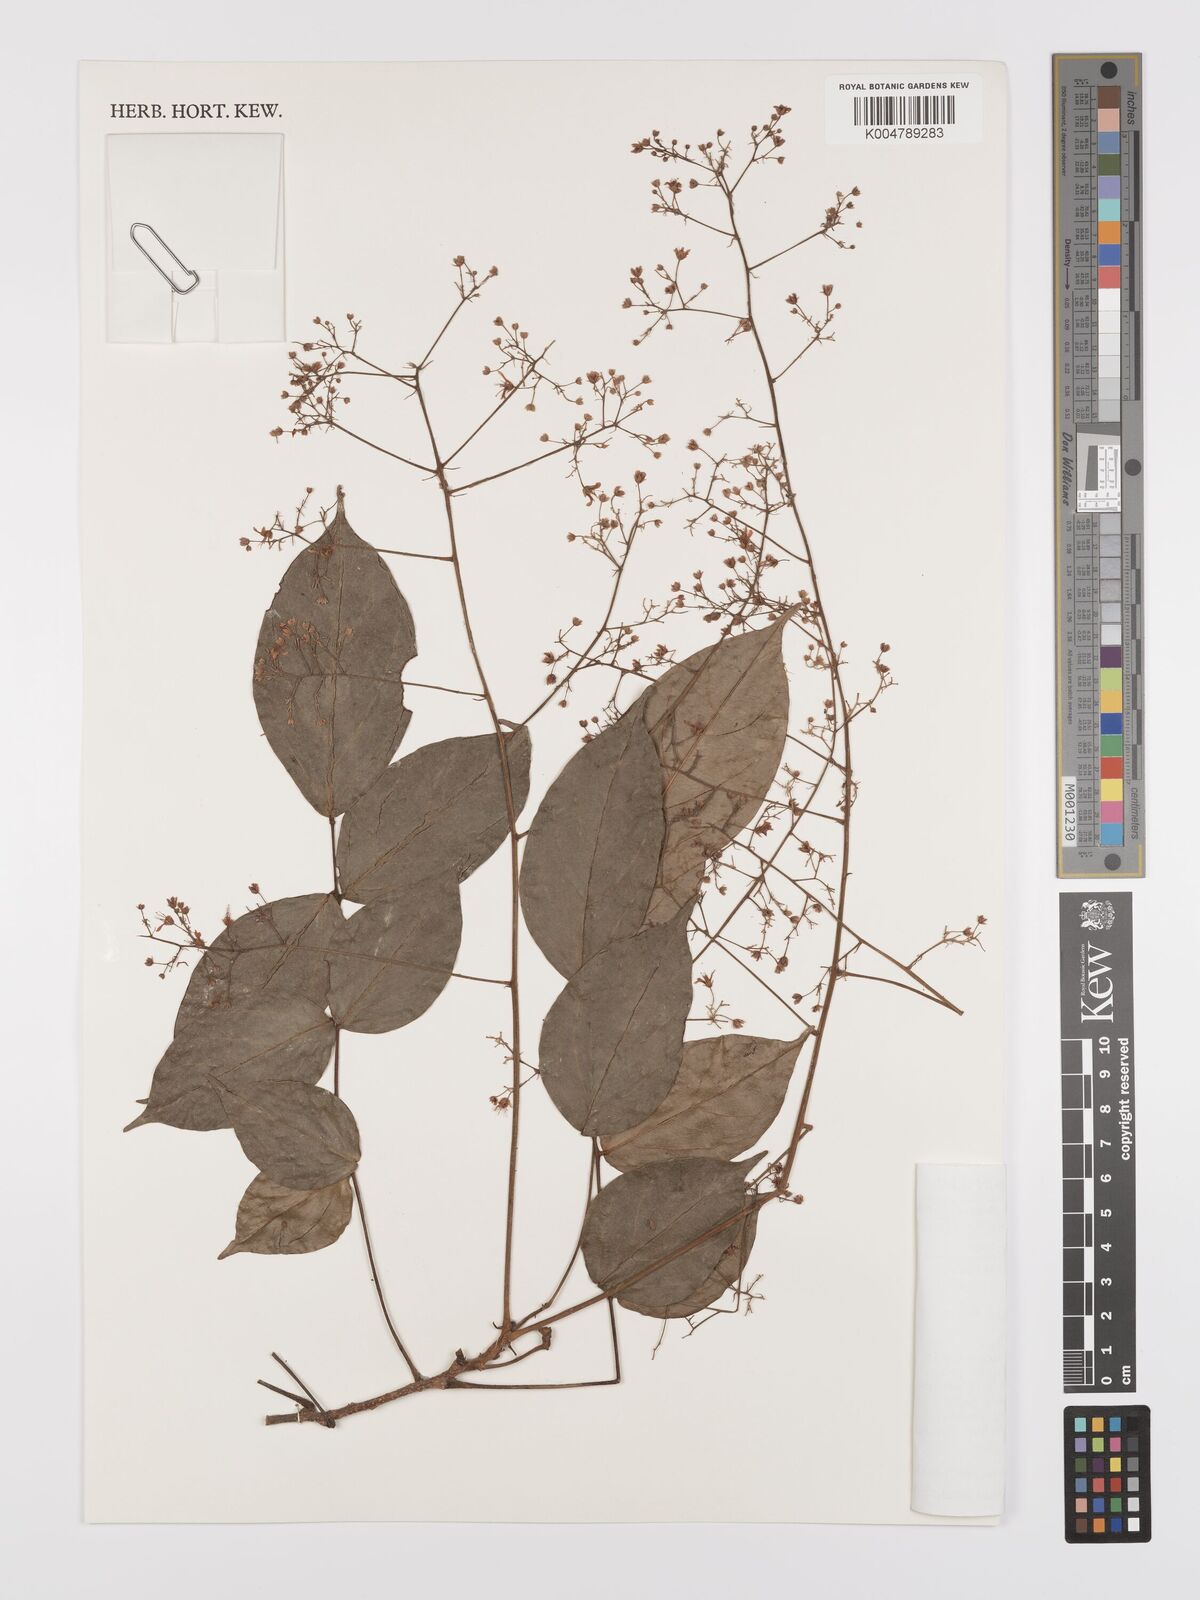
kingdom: Plantae
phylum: Tracheophyta
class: Magnoliopsida
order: Oxalidales
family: Connaraceae
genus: Manotes
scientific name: Manotes expansa
